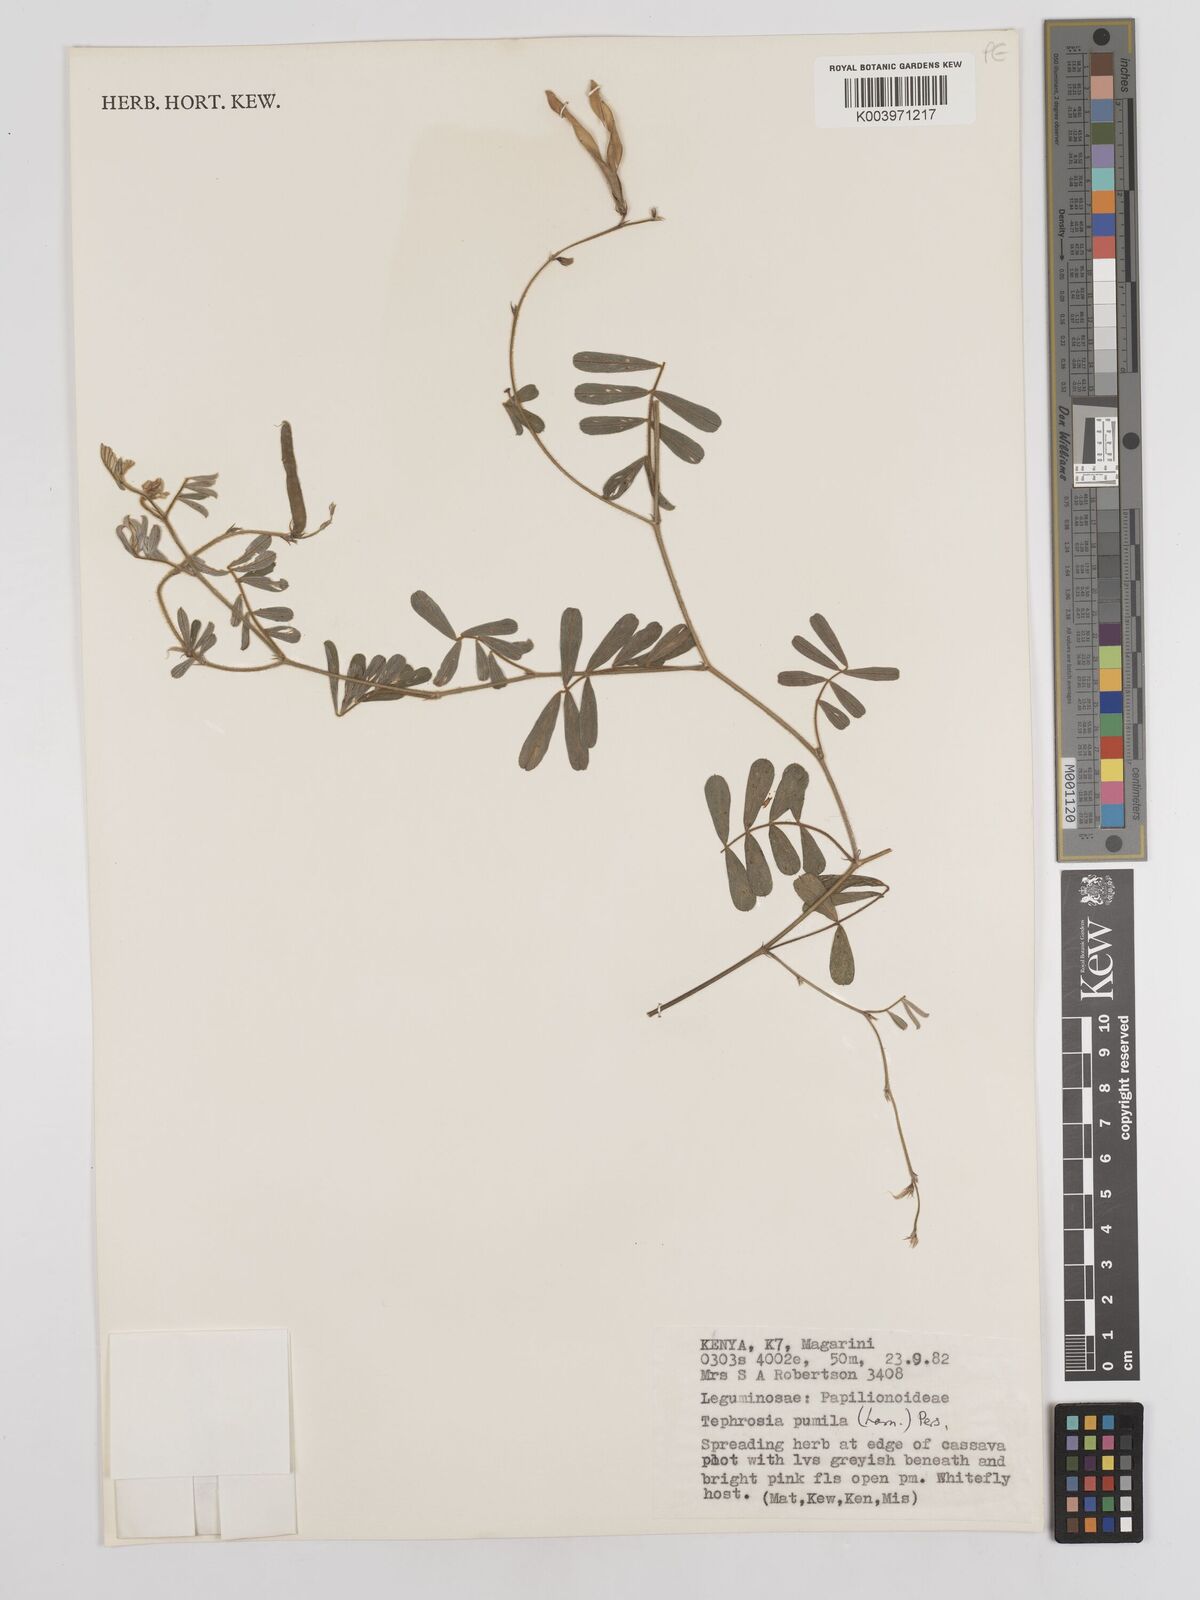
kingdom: Plantae
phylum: Tracheophyta
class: Magnoliopsida
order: Fabales
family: Fabaceae
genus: Tephrosia
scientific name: Tephrosia pumila
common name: Indigo sauvage
